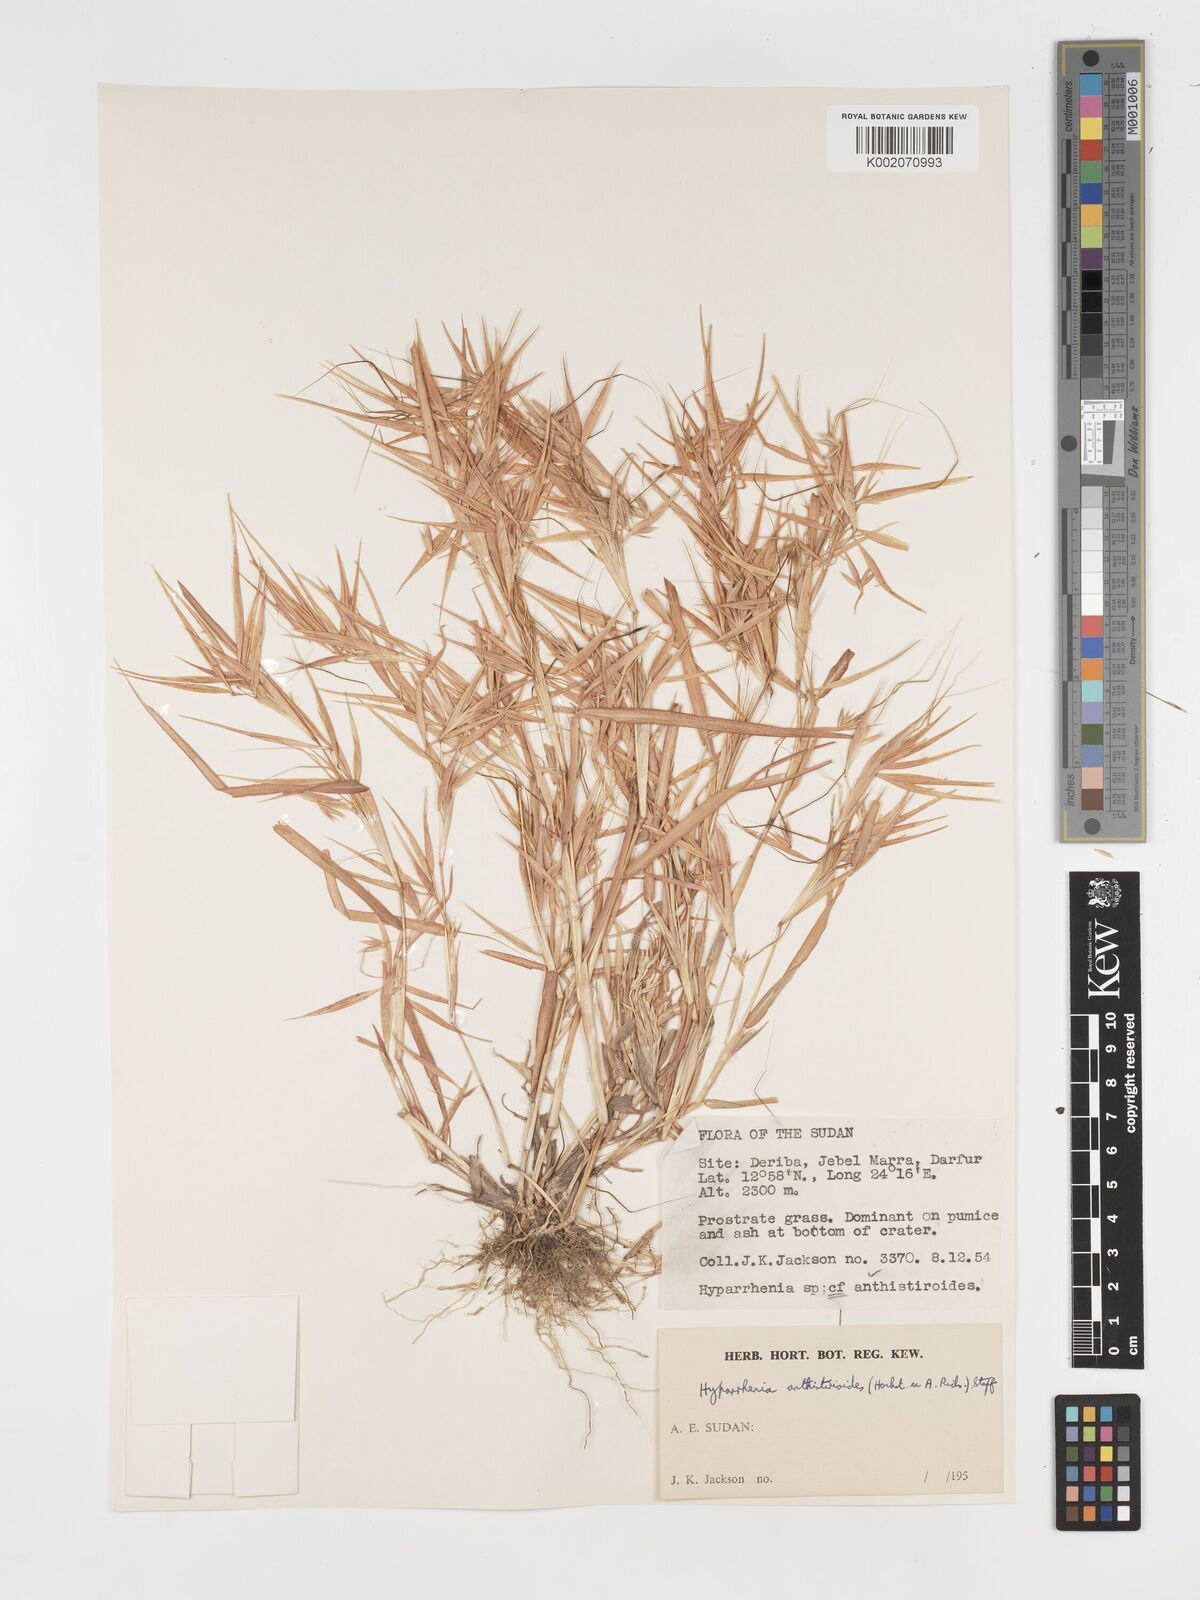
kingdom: Plantae
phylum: Tracheophyta
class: Liliopsida
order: Poales
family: Poaceae
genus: Hyparrhenia
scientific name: Hyparrhenia anthistirioides
